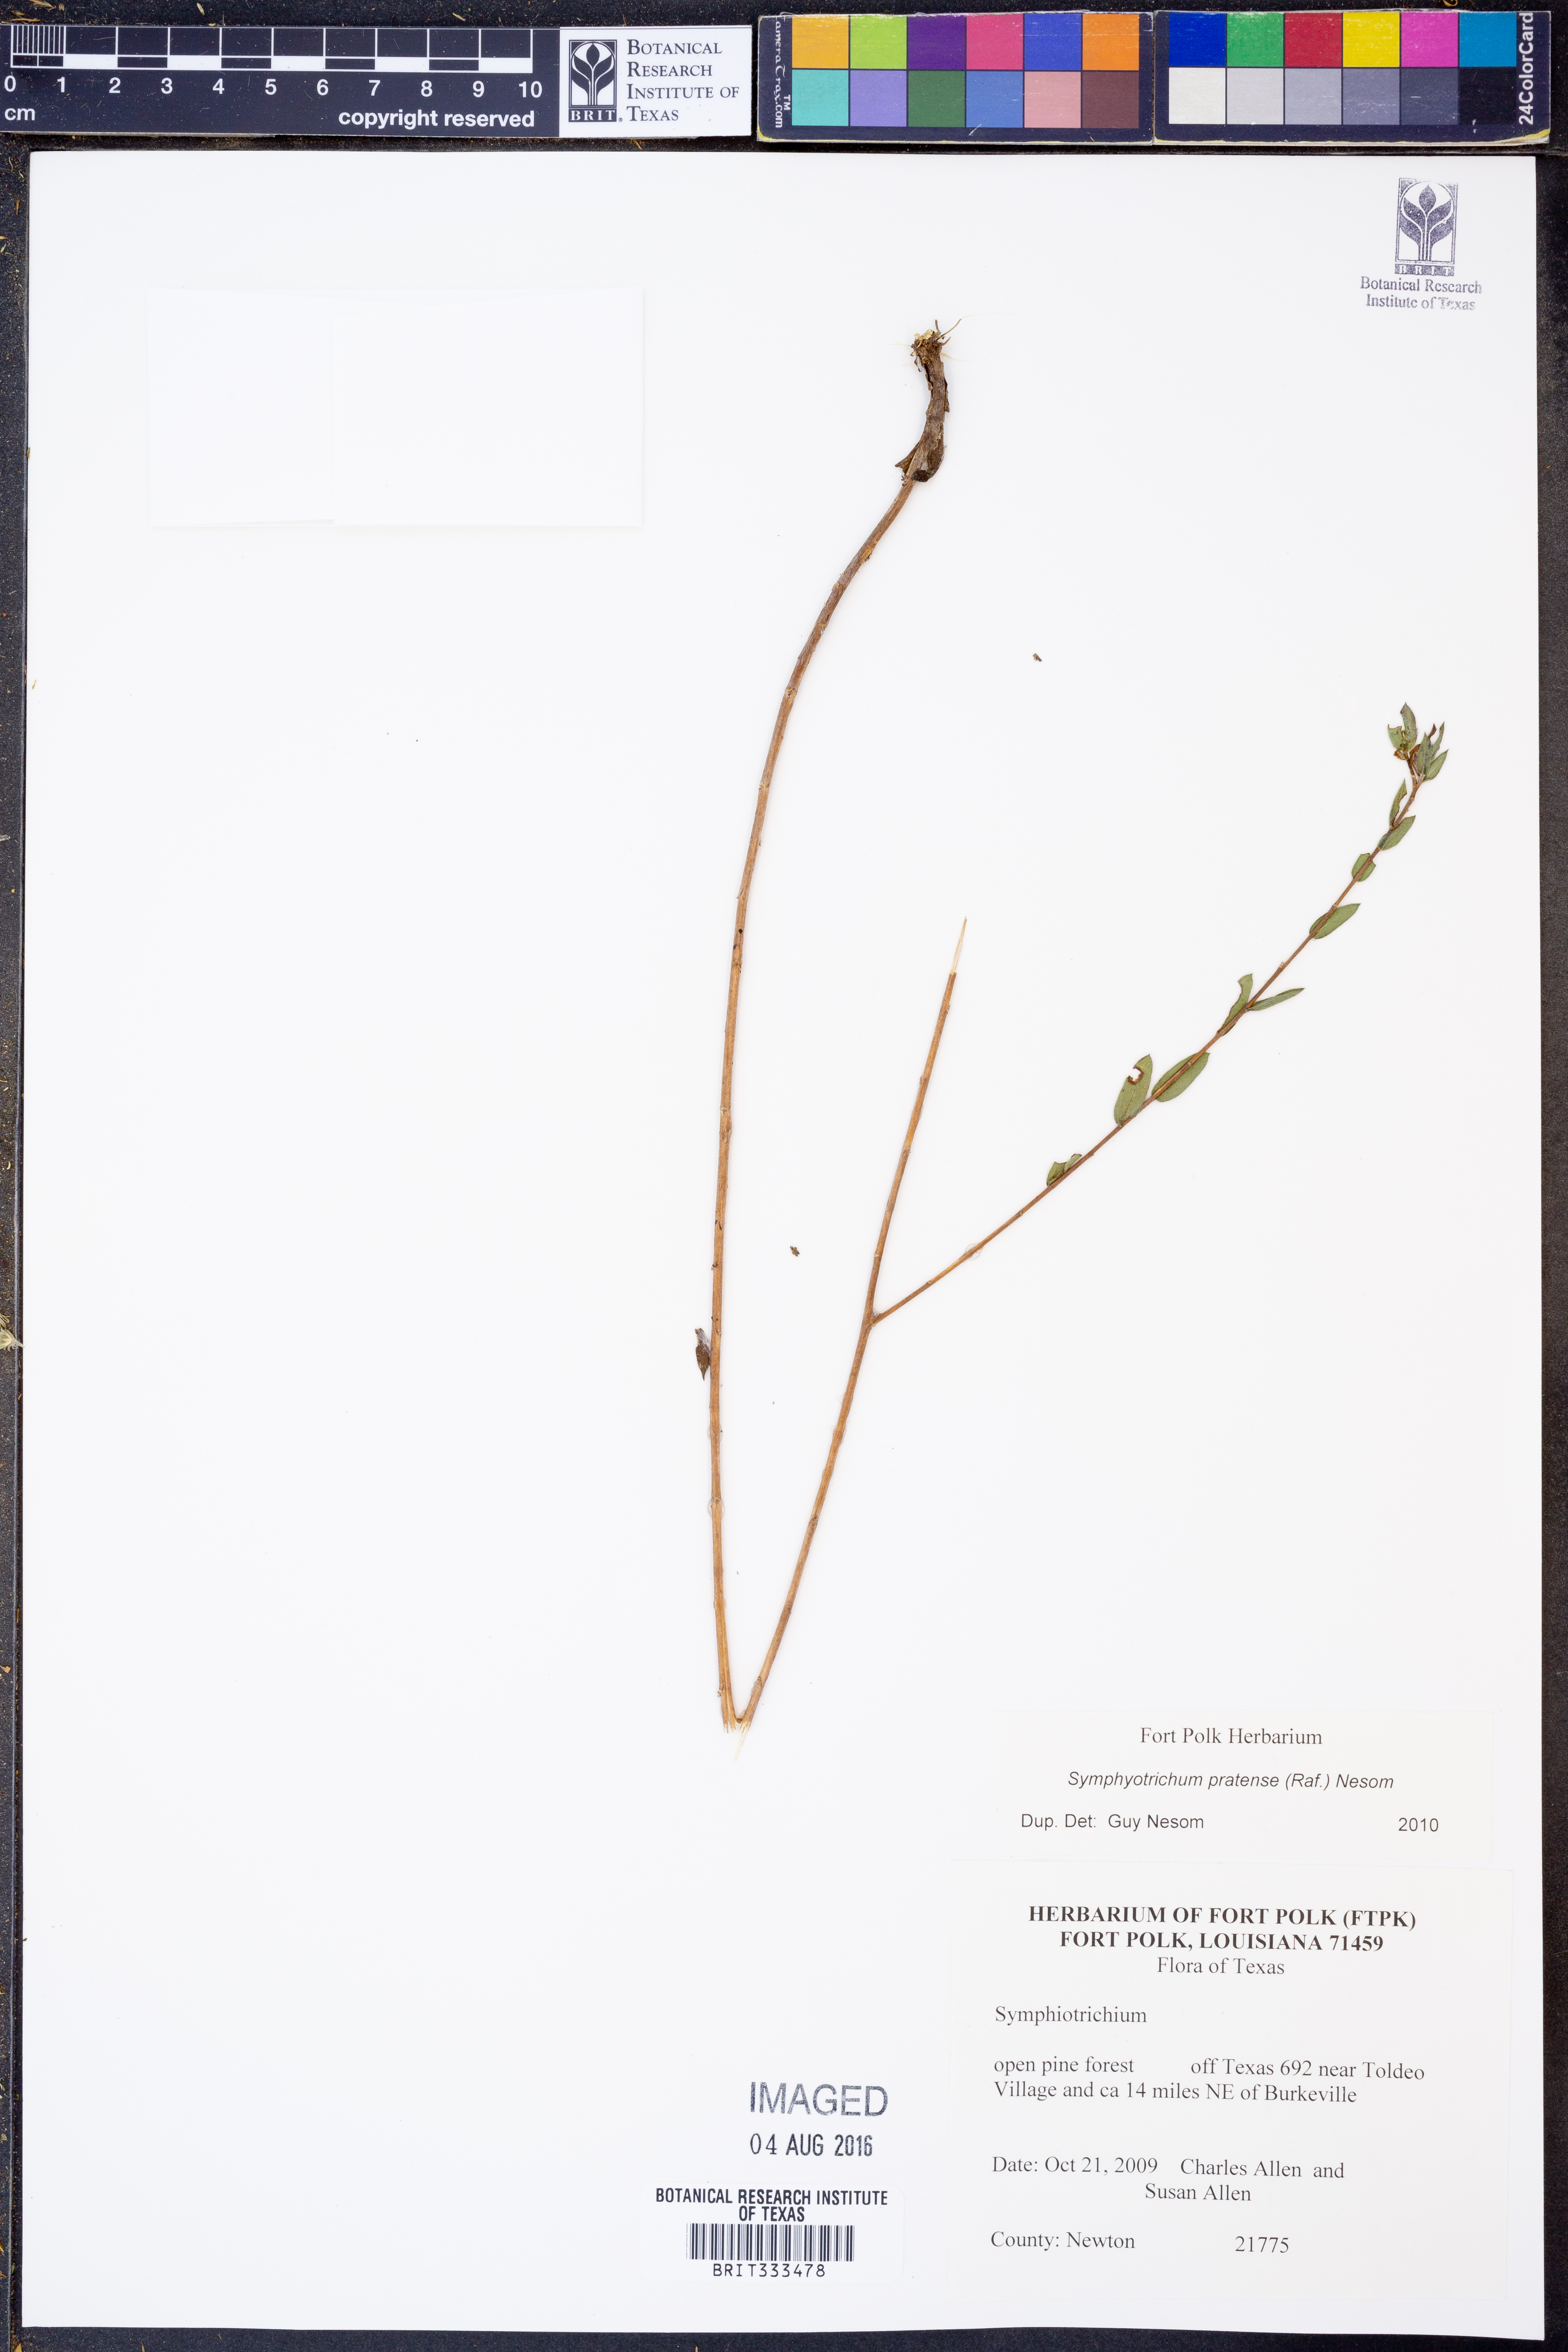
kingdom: Plantae
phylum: Tracheophyta
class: Magnoliopsida
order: Asterales
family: Asteraceae
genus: Symphyotrichum
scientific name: Symphyotrichum pratense
